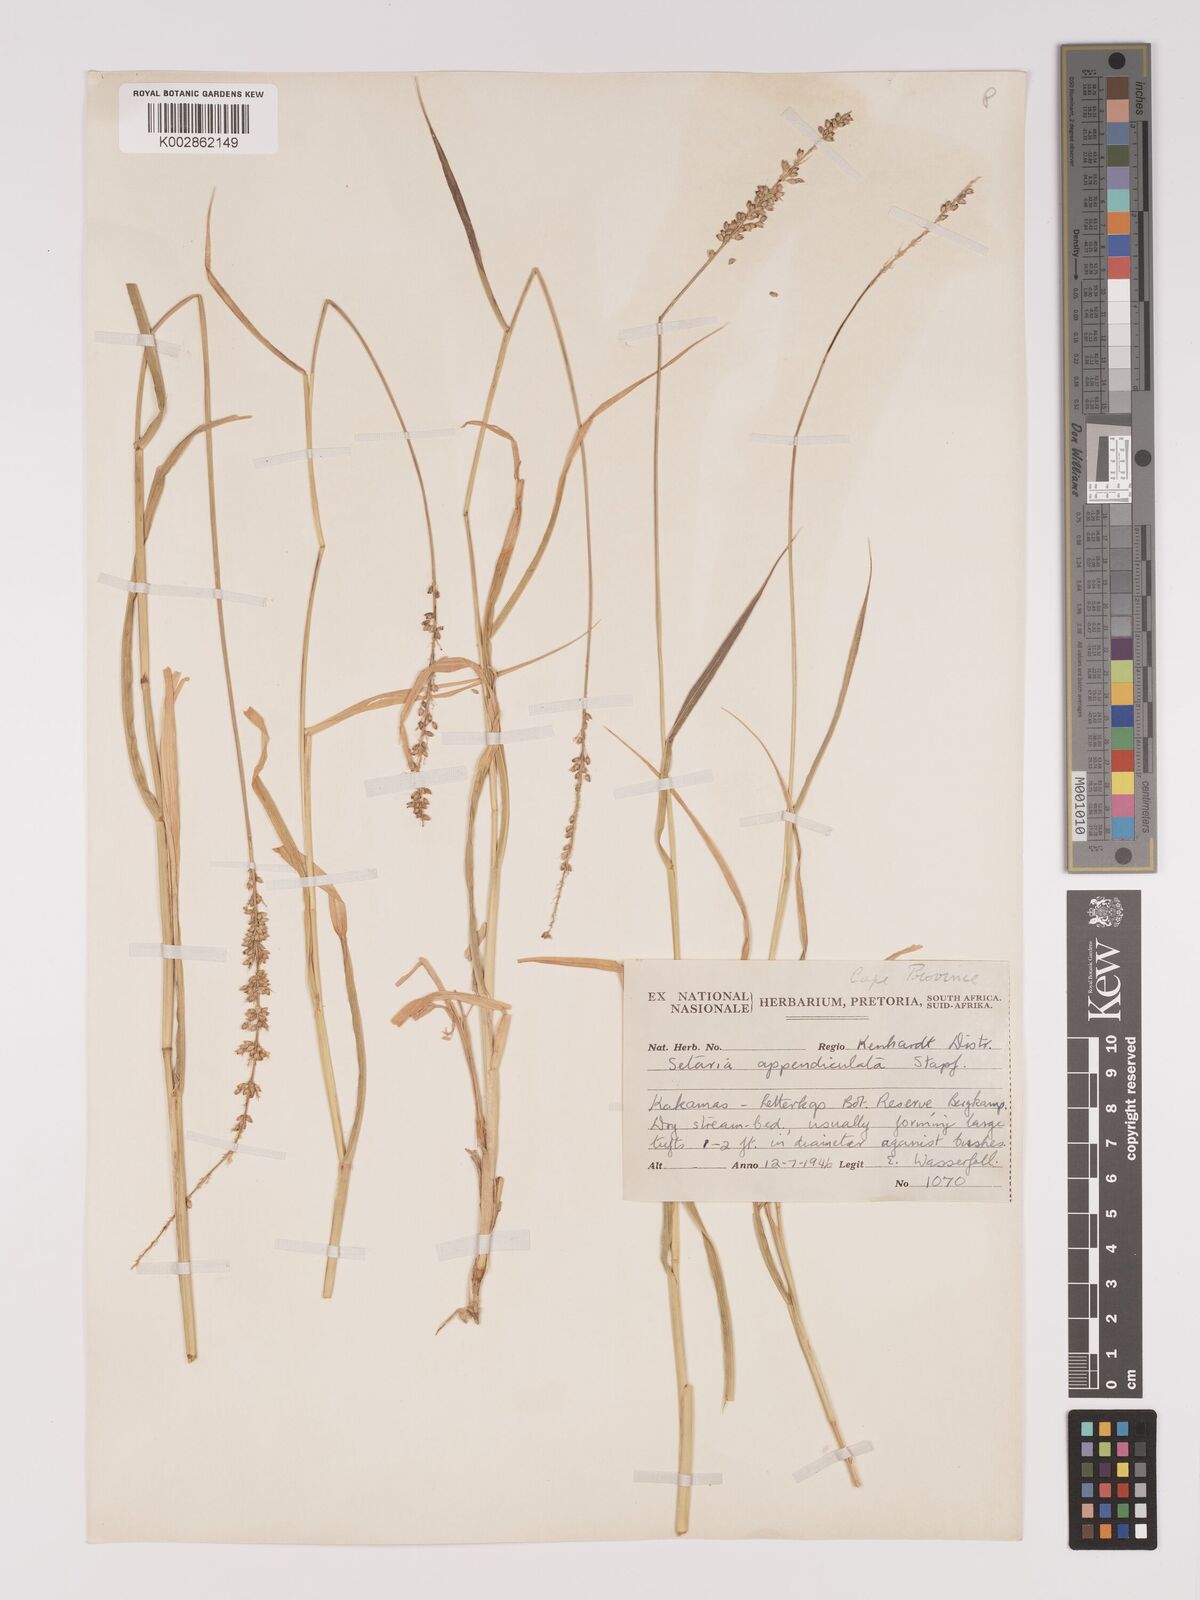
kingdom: Plantae
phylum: Tracheophyta
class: Liliopsida
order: Poales
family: Poaceae
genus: Setaria
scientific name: Setaria appendiculata
